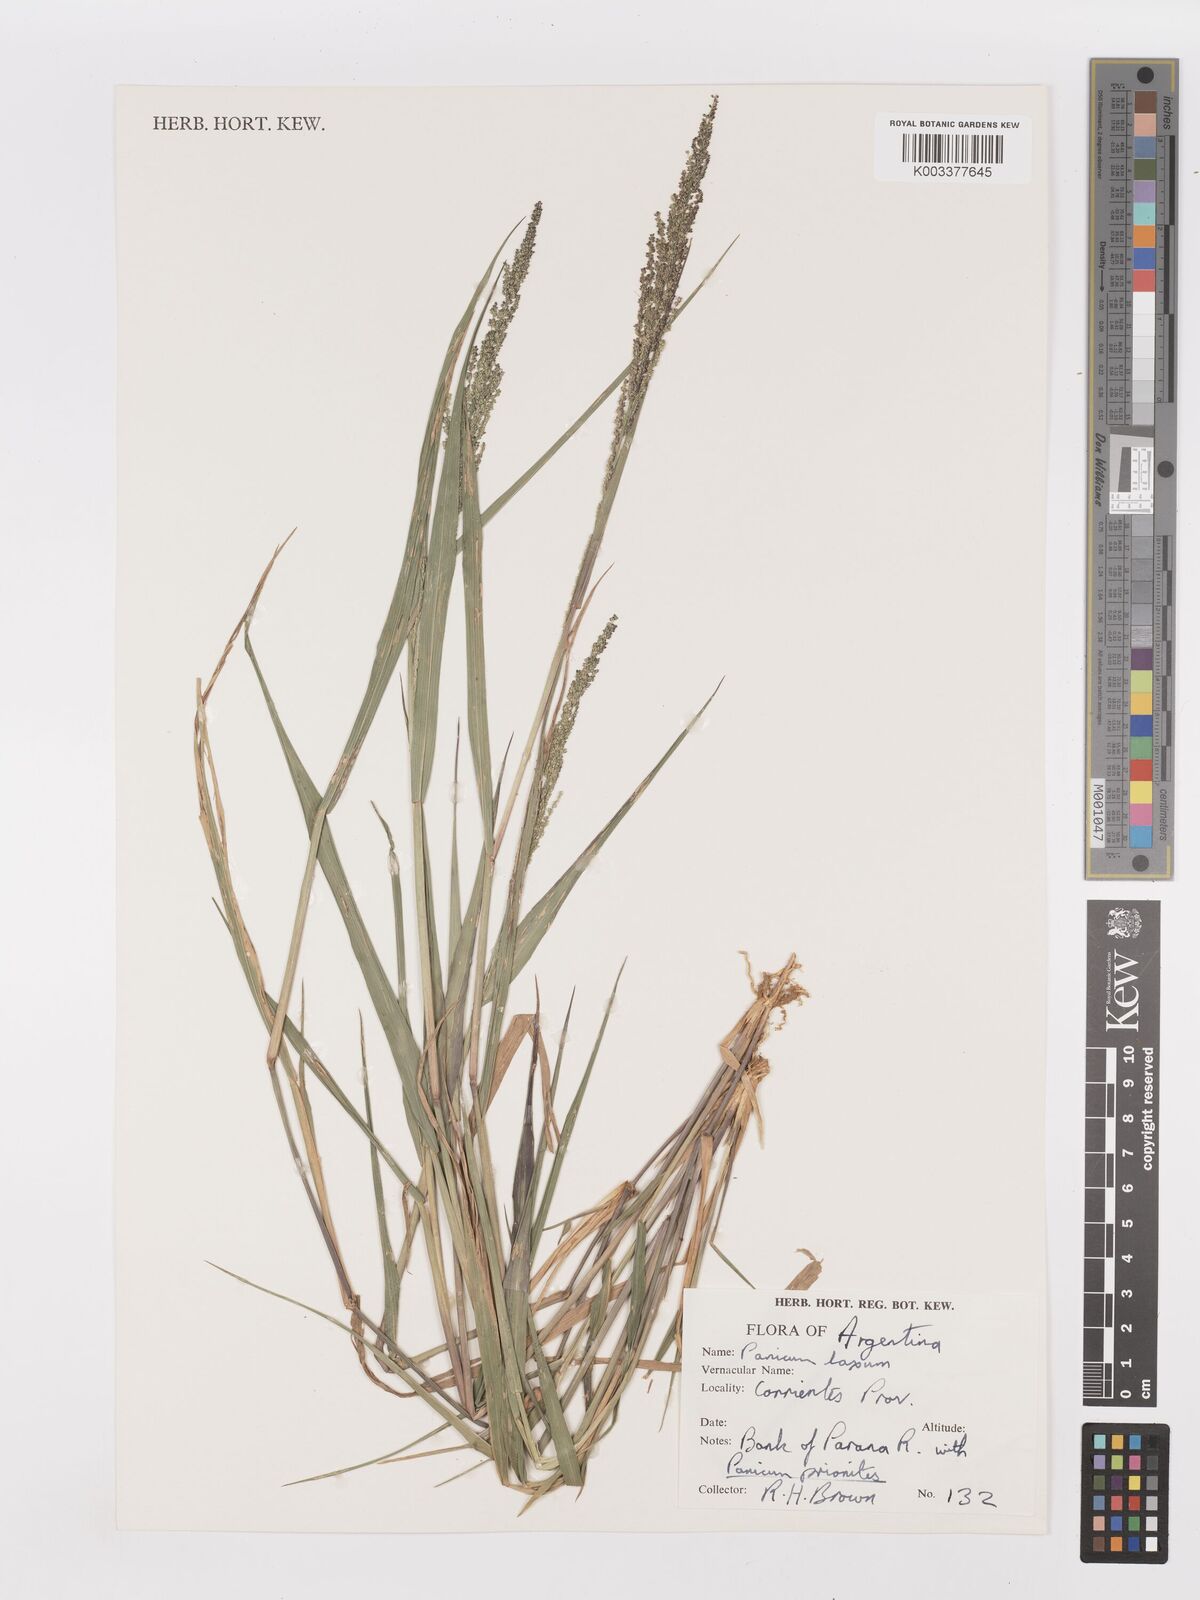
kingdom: Plantae
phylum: Tracheophyta
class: Liliopsida
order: Poales
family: Poaceae
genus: Steinchisma
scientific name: Steinchisma laxum
